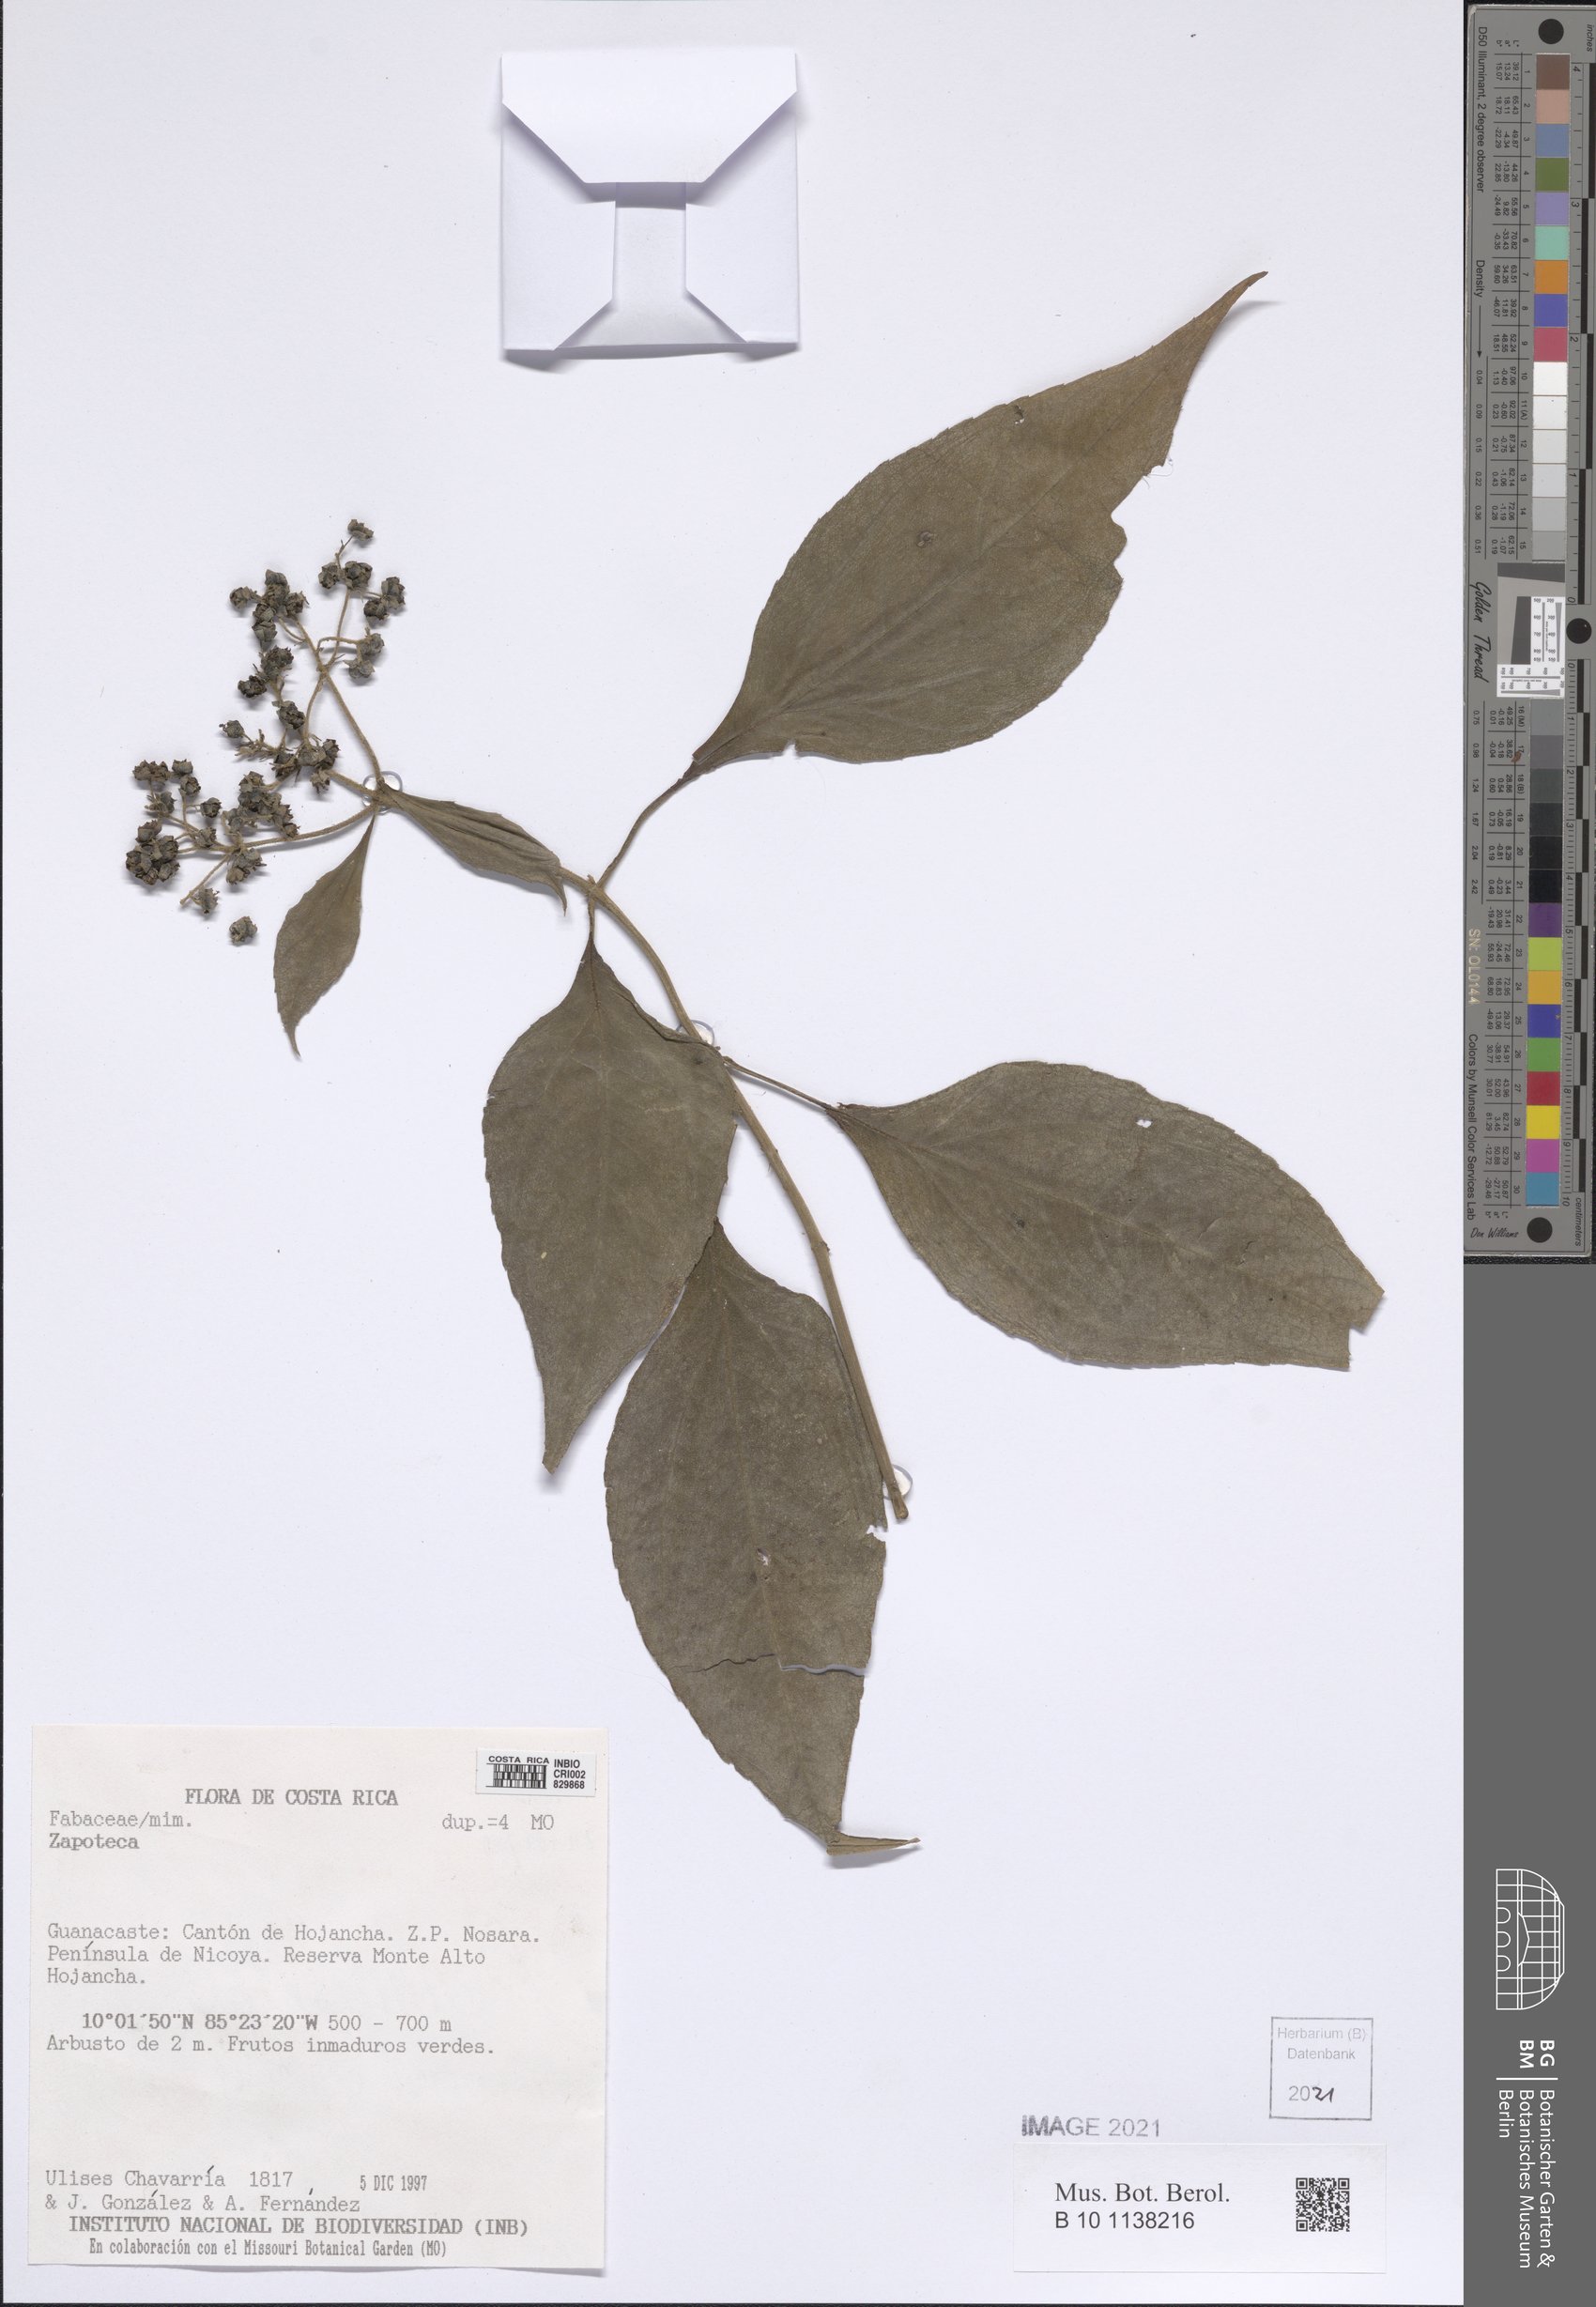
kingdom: Plantae
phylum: Tracheophyta
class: Magnoliopsida
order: Asterales
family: Asteraceae
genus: Clibadium
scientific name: Clibadium sylvestre
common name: Barbasco
